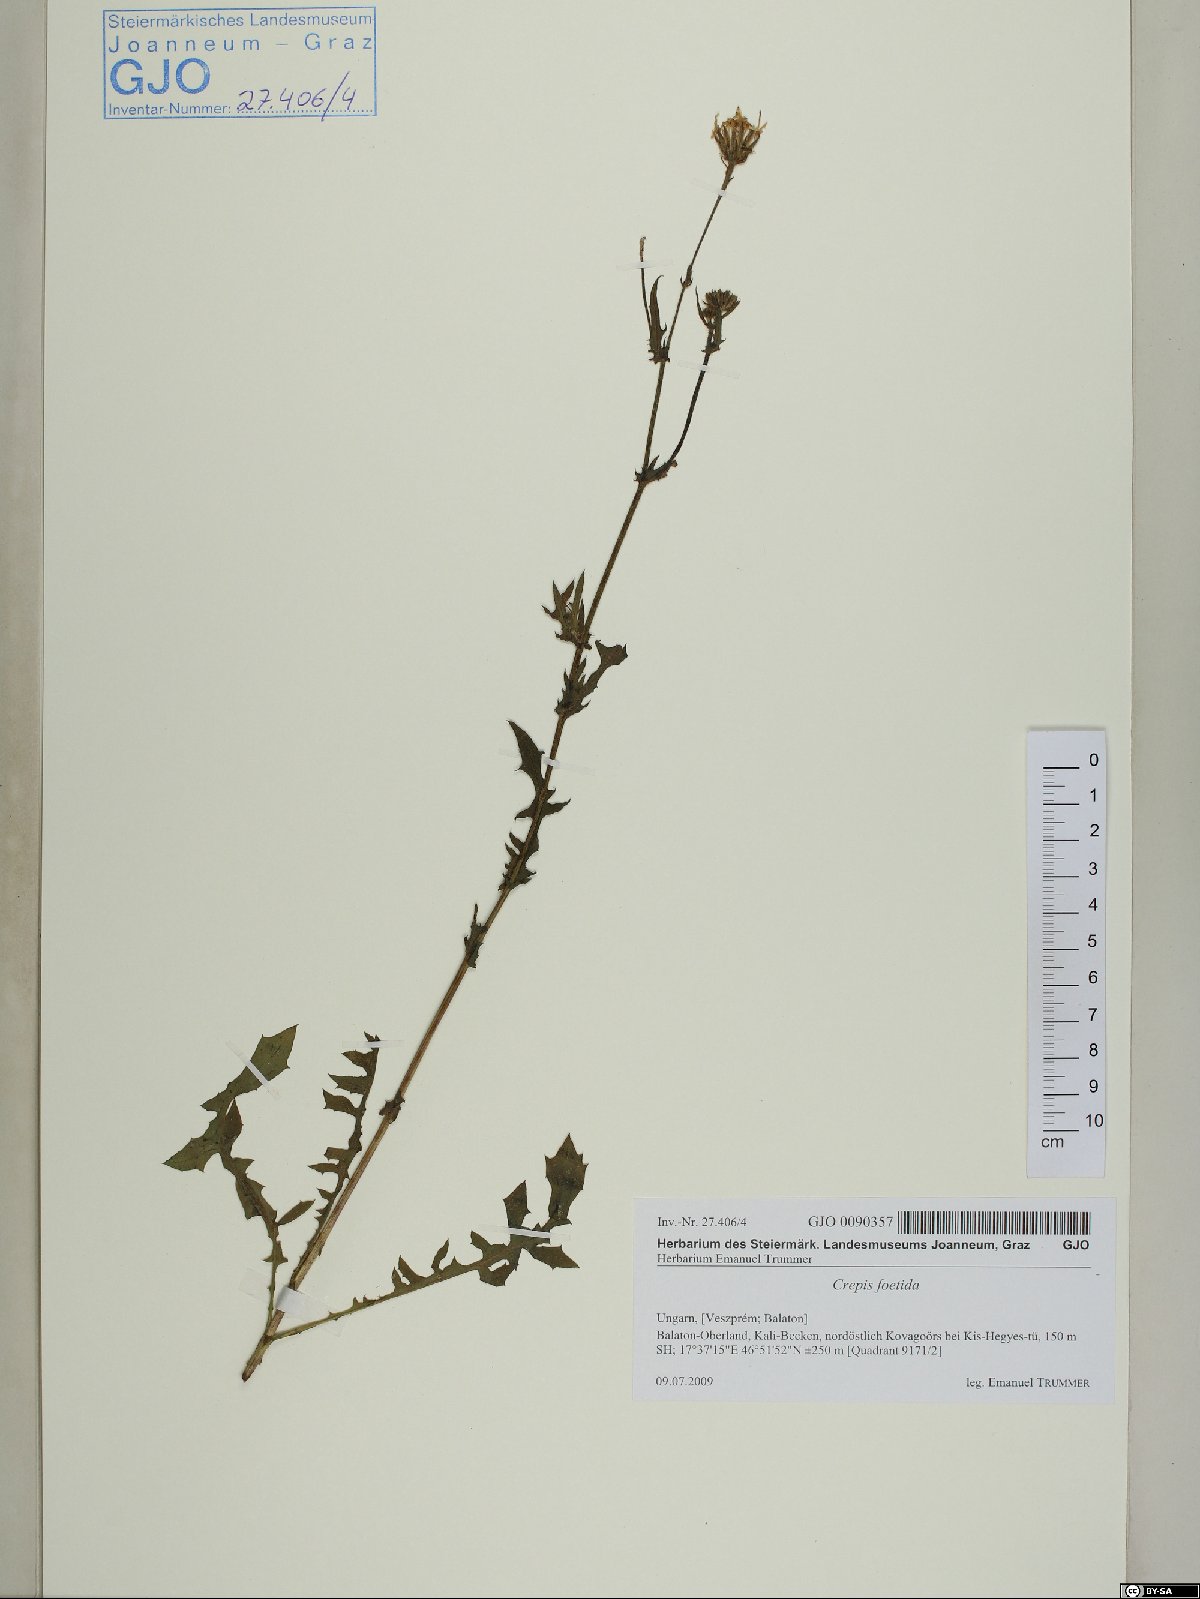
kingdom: Plantae
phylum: Tracheophyta
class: Magnoliopsida
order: Asterales
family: Asteraceae
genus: Crepis
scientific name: Crepis foetida
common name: Stinking hawk's-beard
